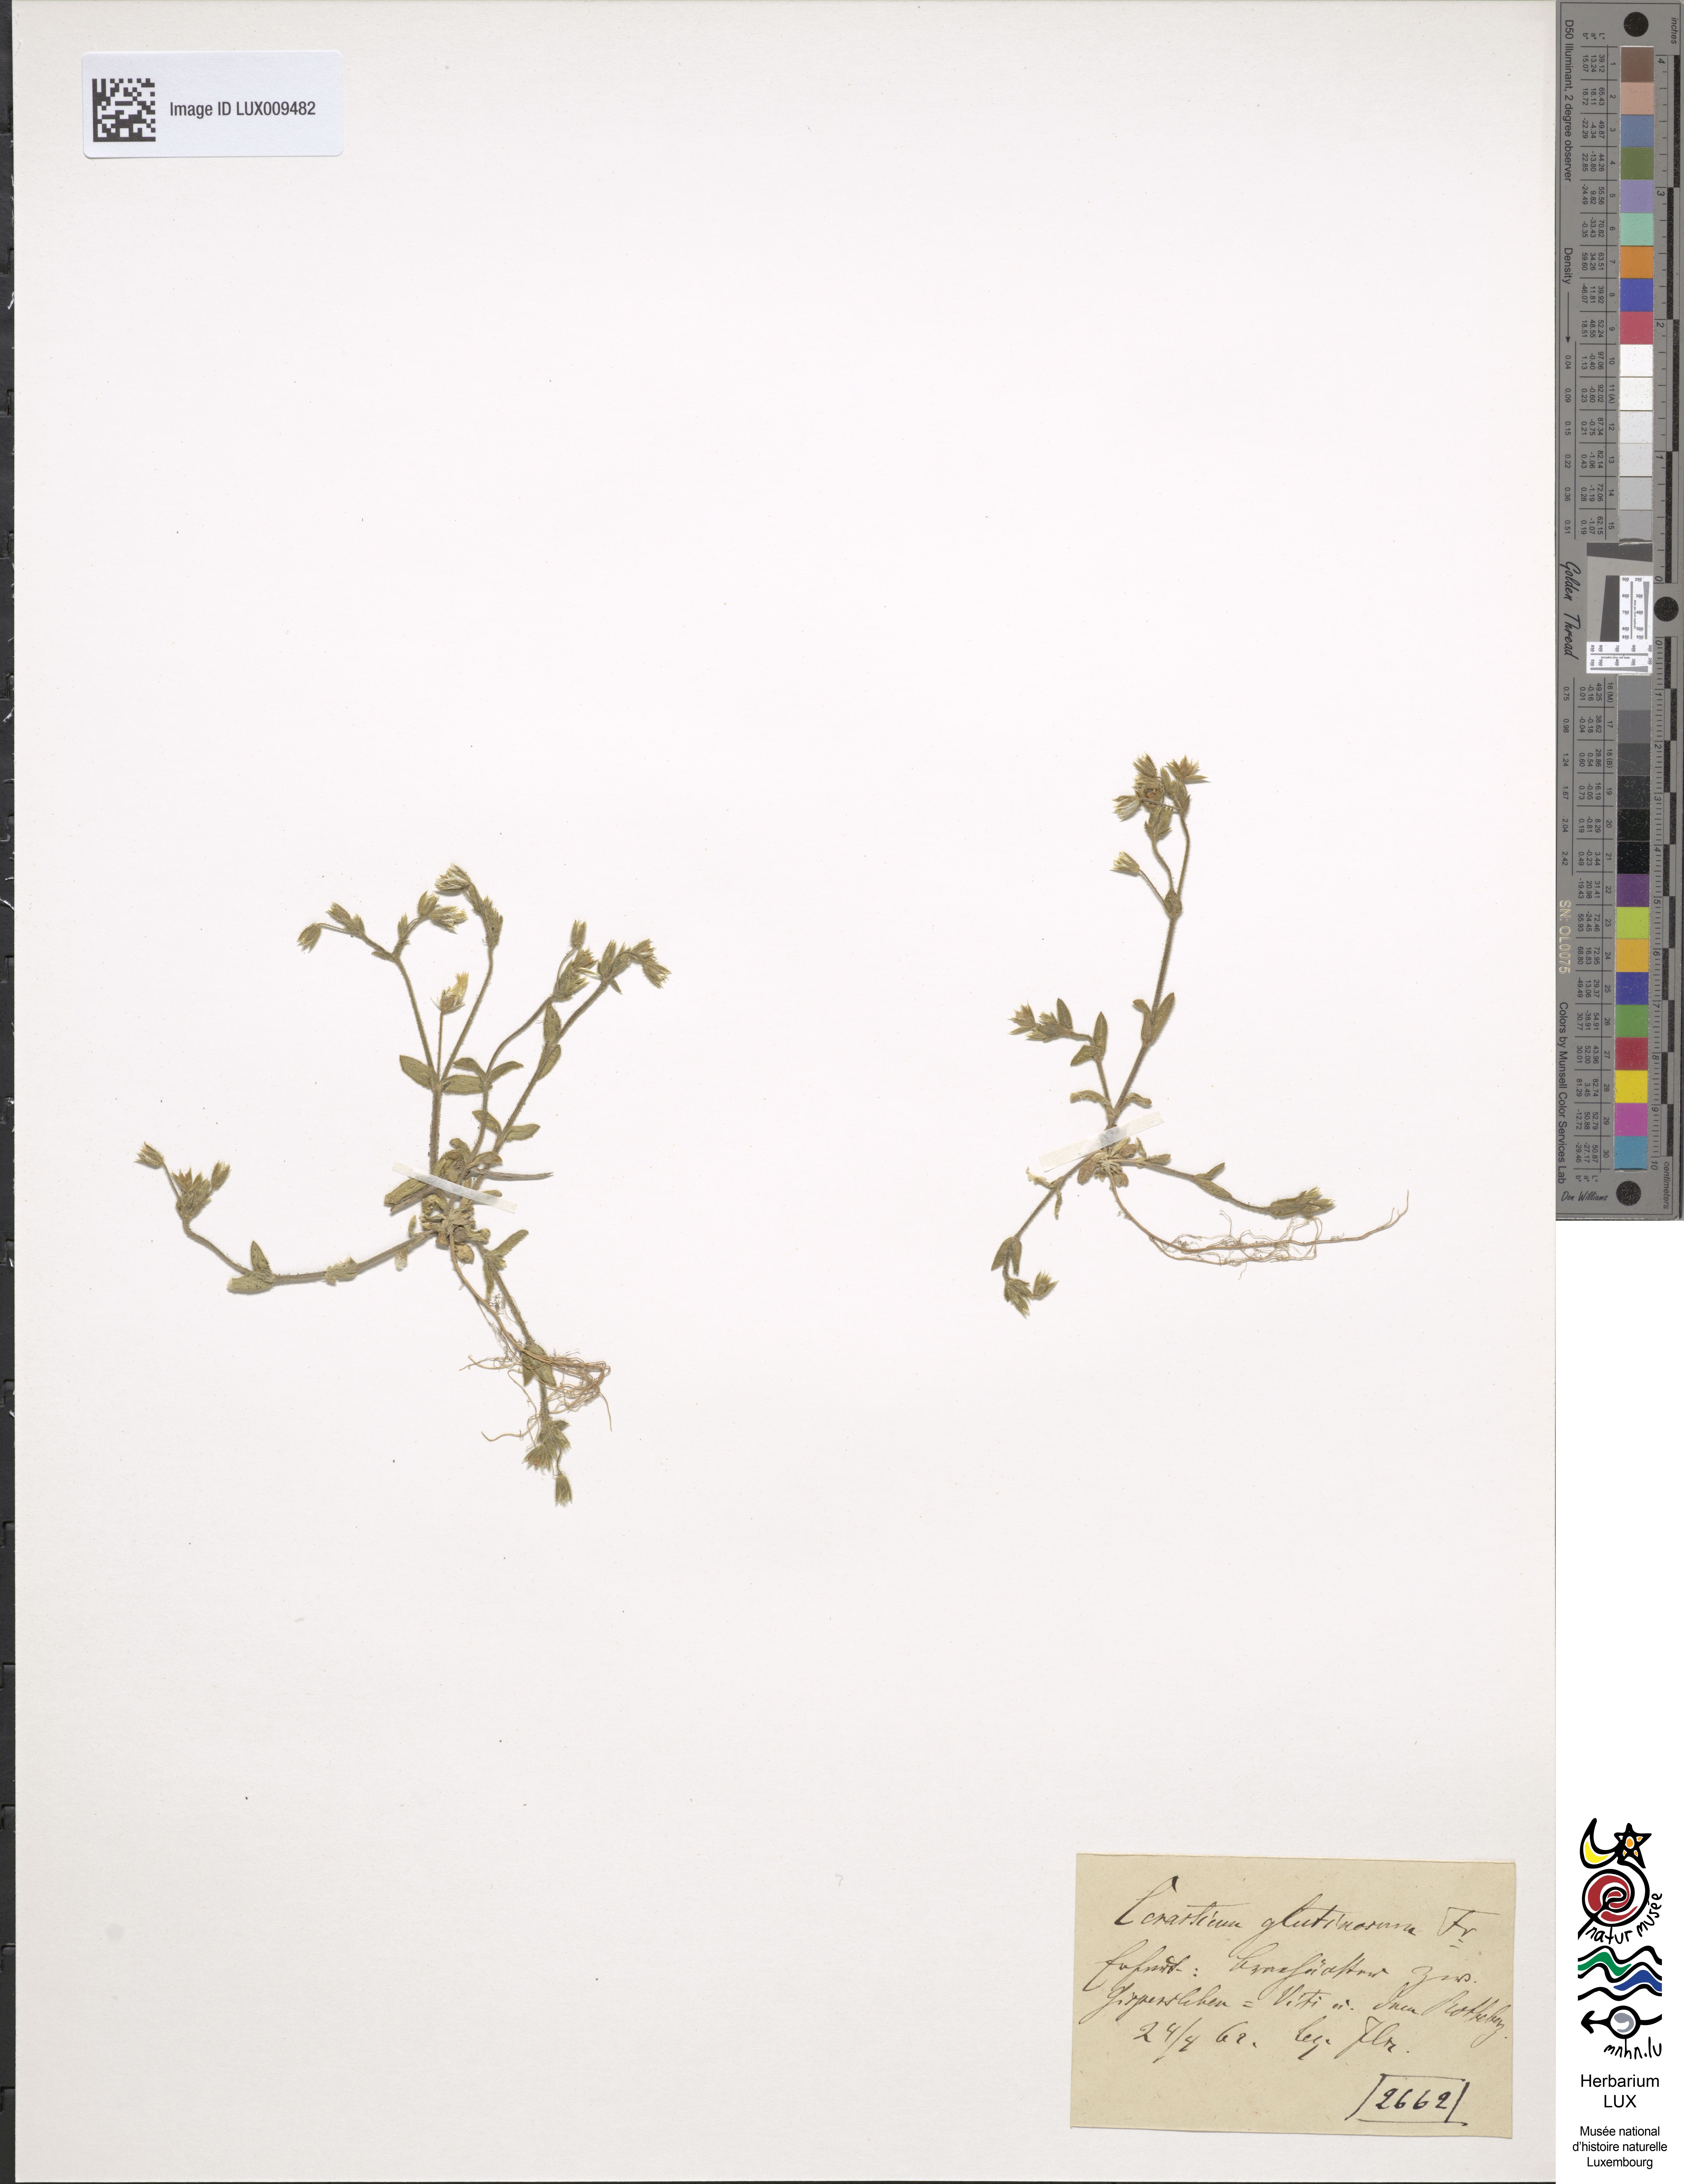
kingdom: Plantae
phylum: Tracheophyta
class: Magnoliopsida
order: Caryophyllales
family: Caryophyllaceae
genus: Cerastium
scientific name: Cerastium pumilum
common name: Dwarf mouse-ear
